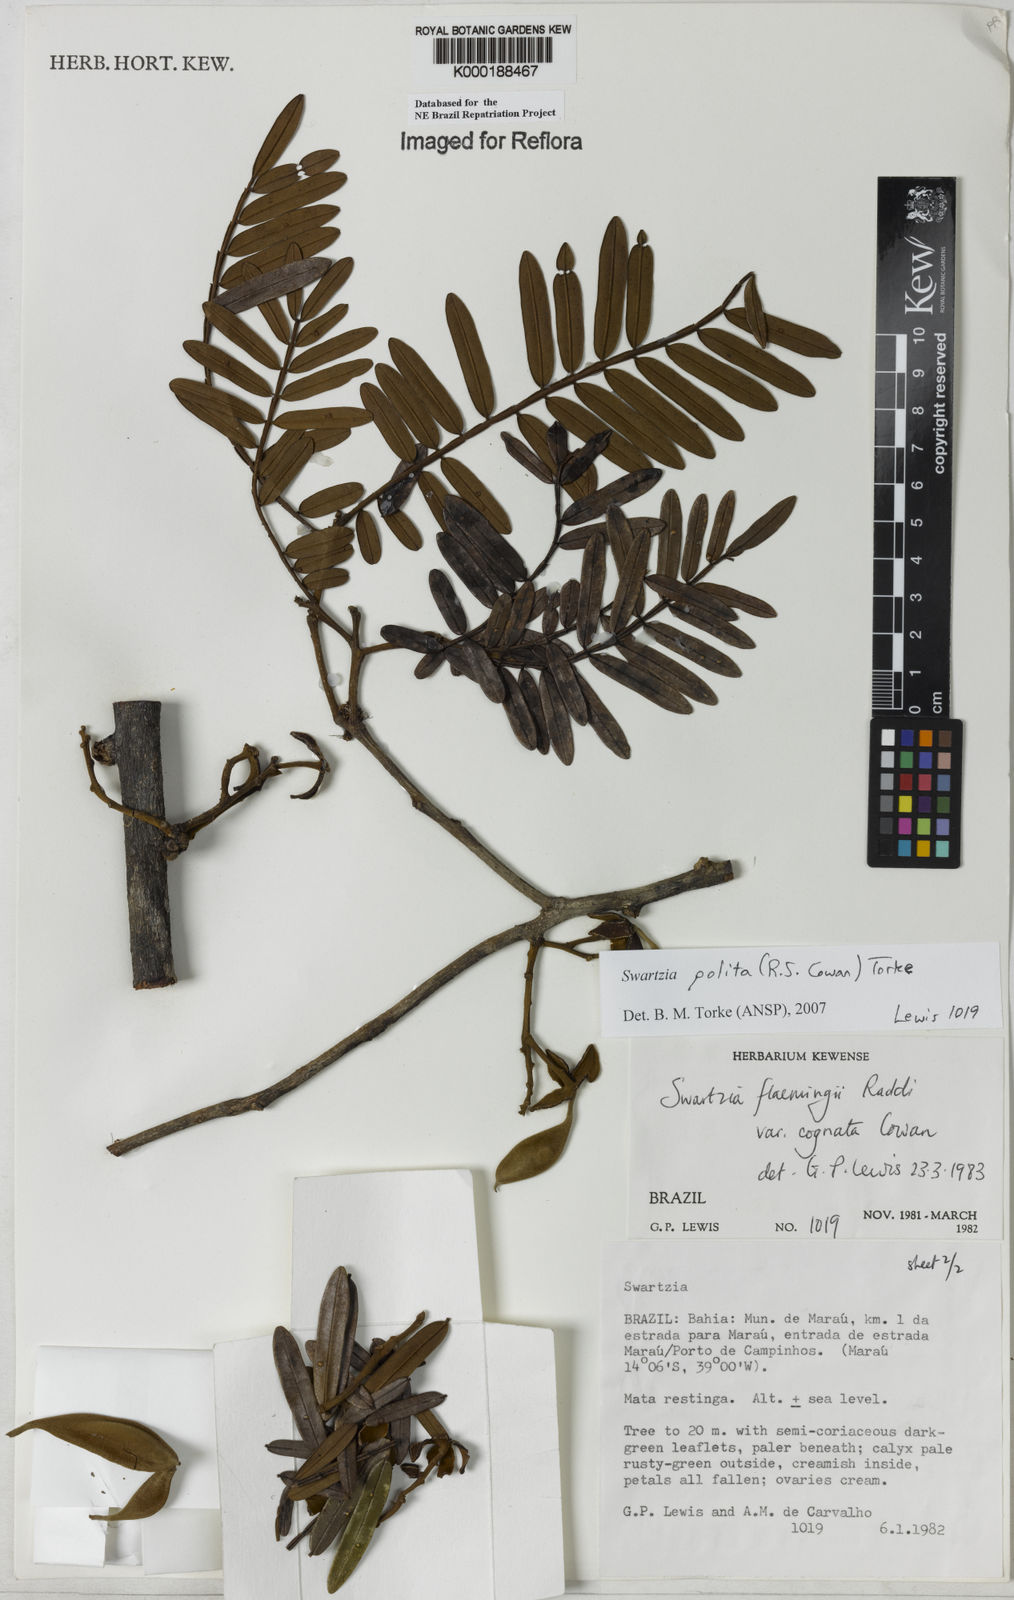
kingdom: Plantae
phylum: Tracheophyta
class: Magnoliopsida
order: Fabales
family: Fabaceae
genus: Swartzia
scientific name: Swartzia polita
